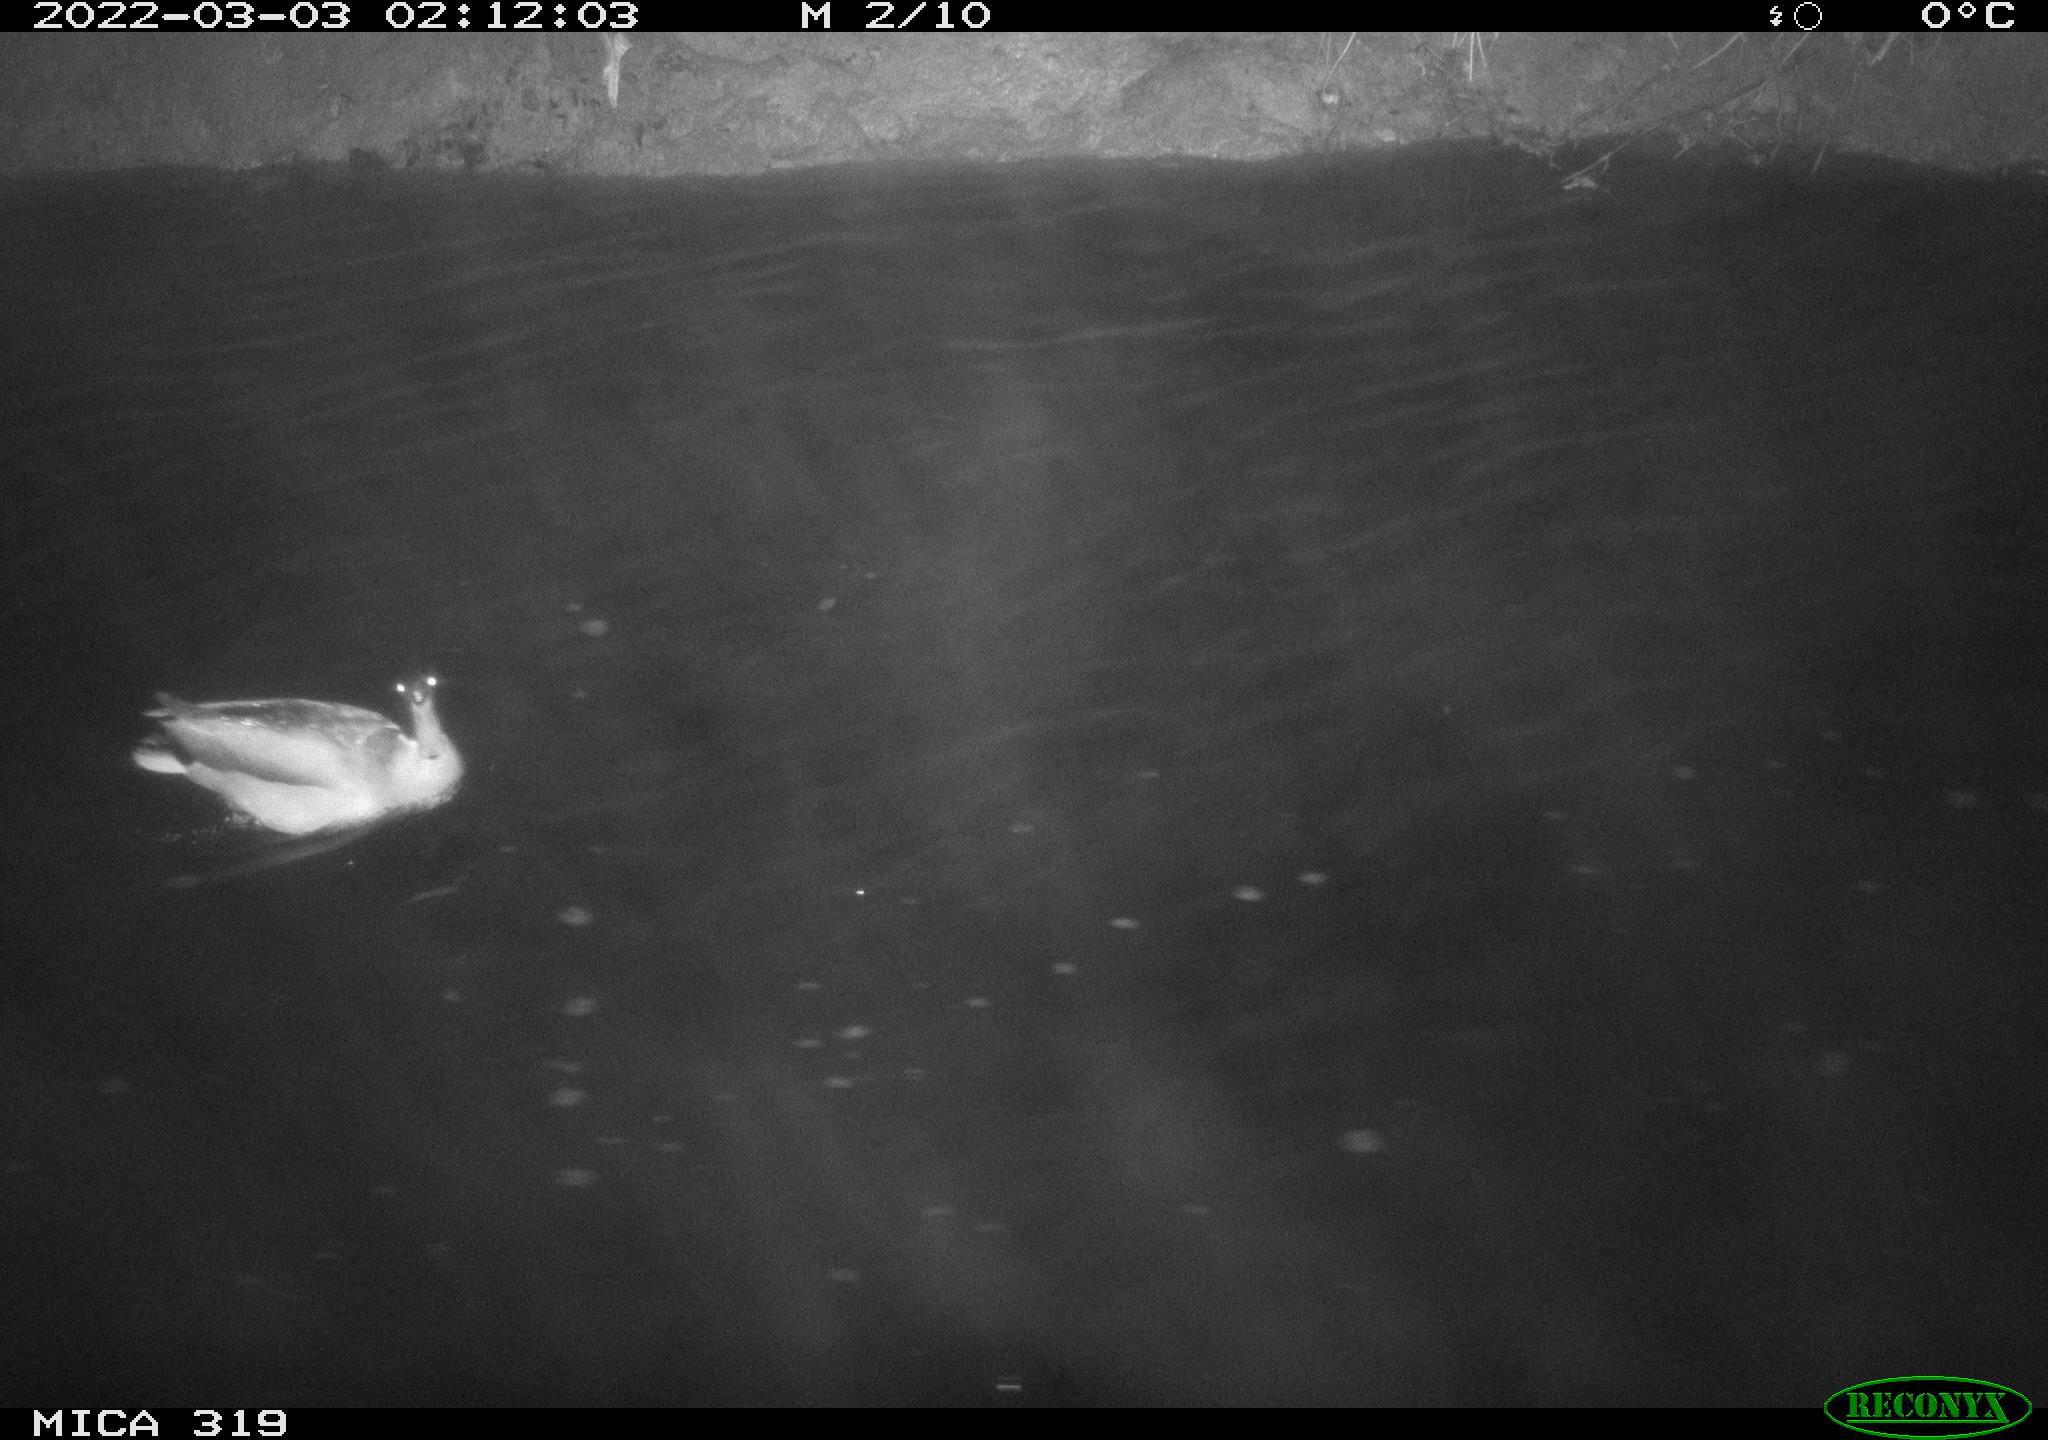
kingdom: Animalia
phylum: Chordata
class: Aves
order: Anseriformes
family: Anatidae
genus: Anas
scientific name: Anas platyrhynchos
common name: Mallard
